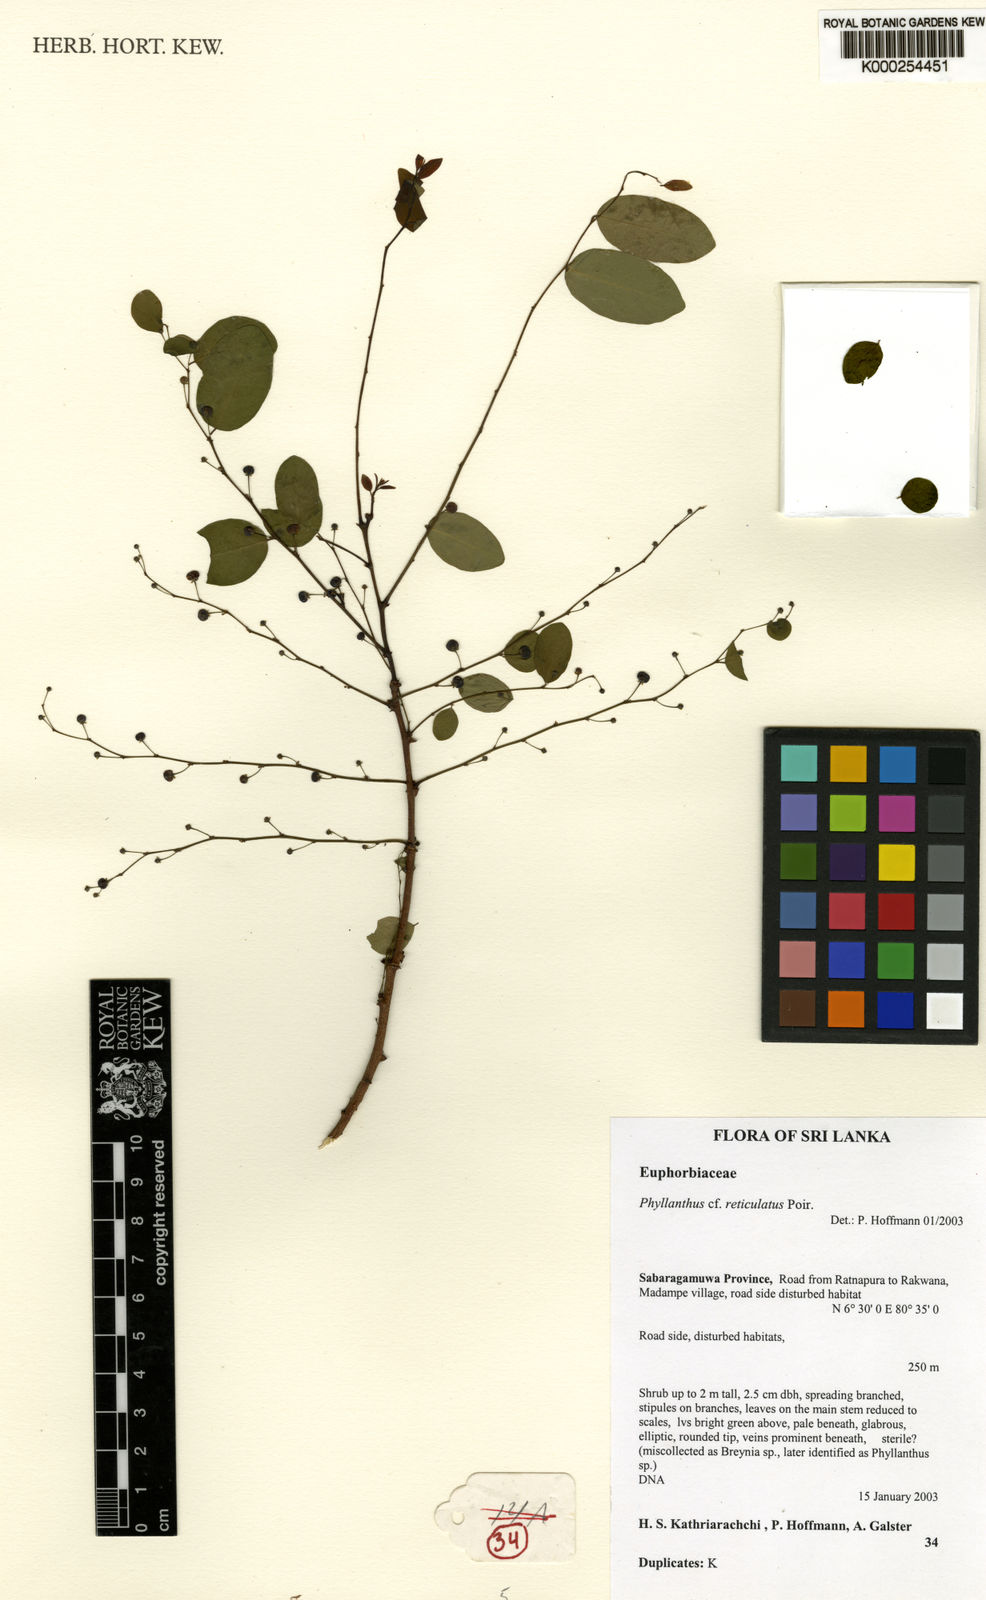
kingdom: Plantae
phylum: Tracheophyta
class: Magnoliopsida
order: Malpighiales
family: Phyllanthaceae
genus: Phyllanthus
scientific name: Phyllanthus reticulatus
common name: Potato bush
